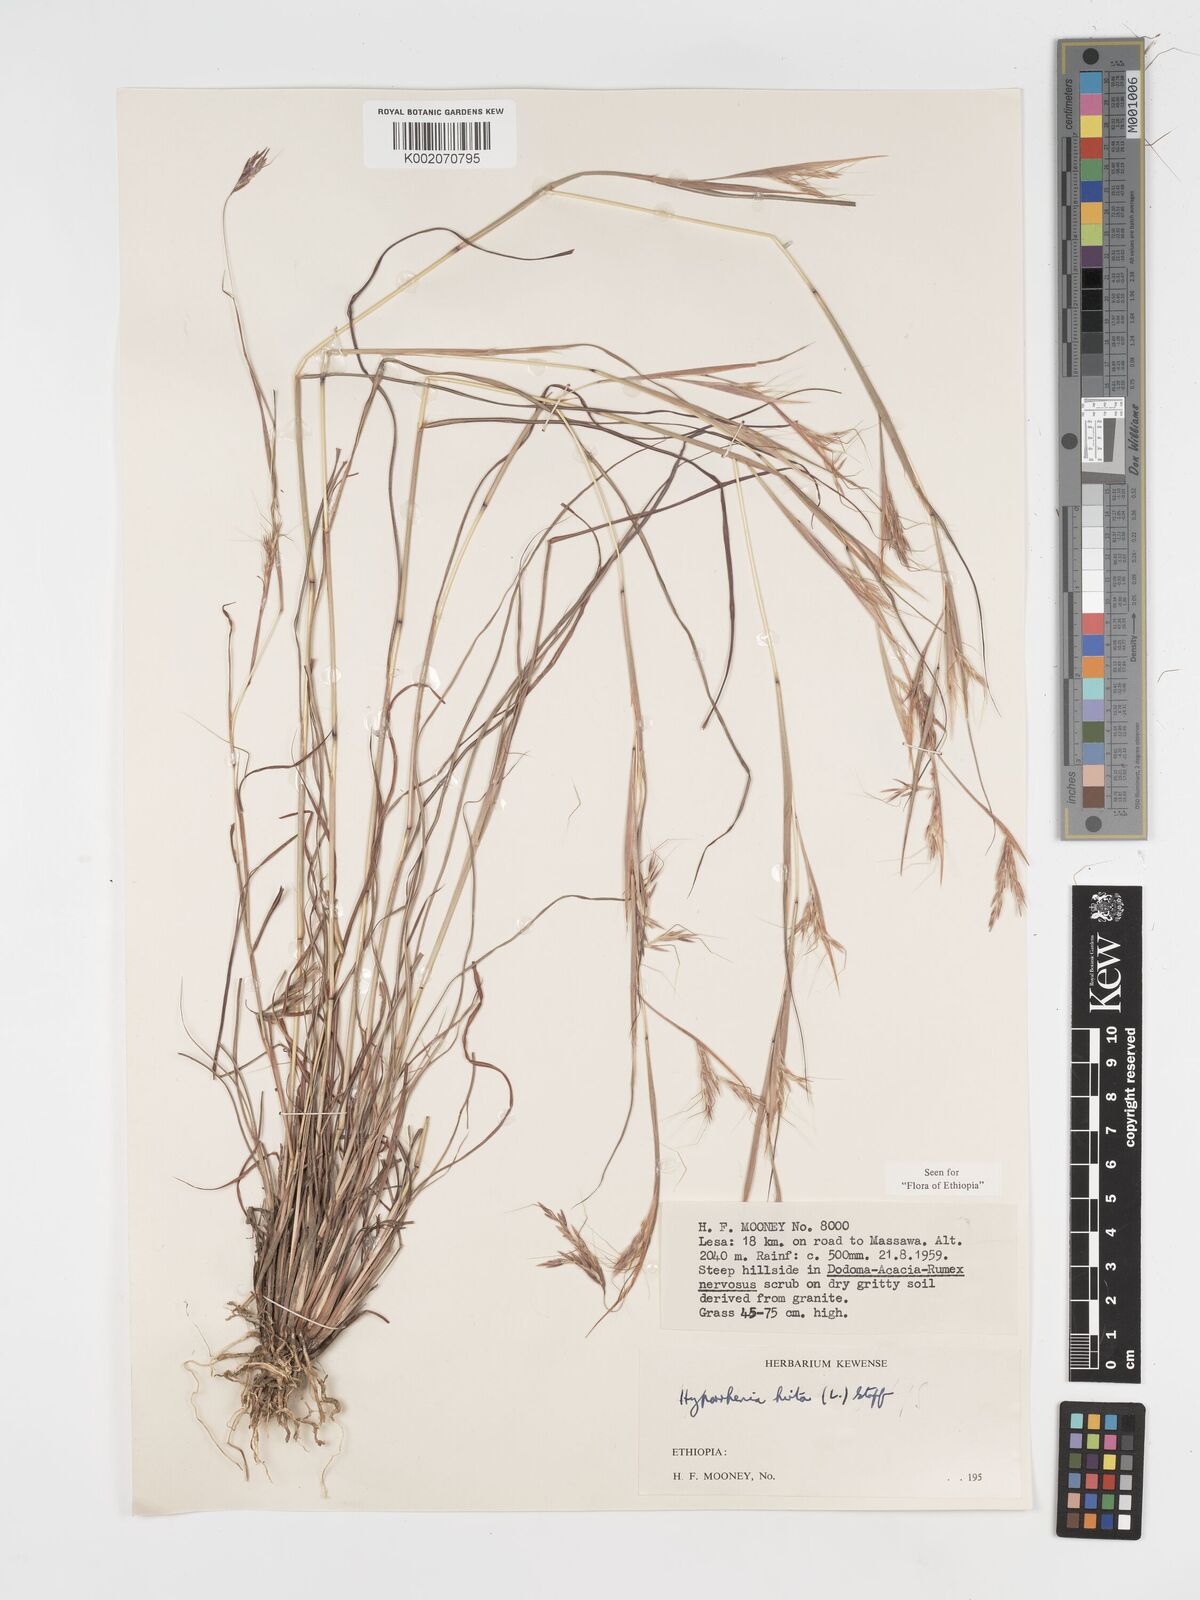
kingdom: Plantae
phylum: Tracheophyta
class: Liliopsida
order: Poales
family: Poaceae
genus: Hyparrhenia
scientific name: Hyparrhenia hirta
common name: Thatching grass
